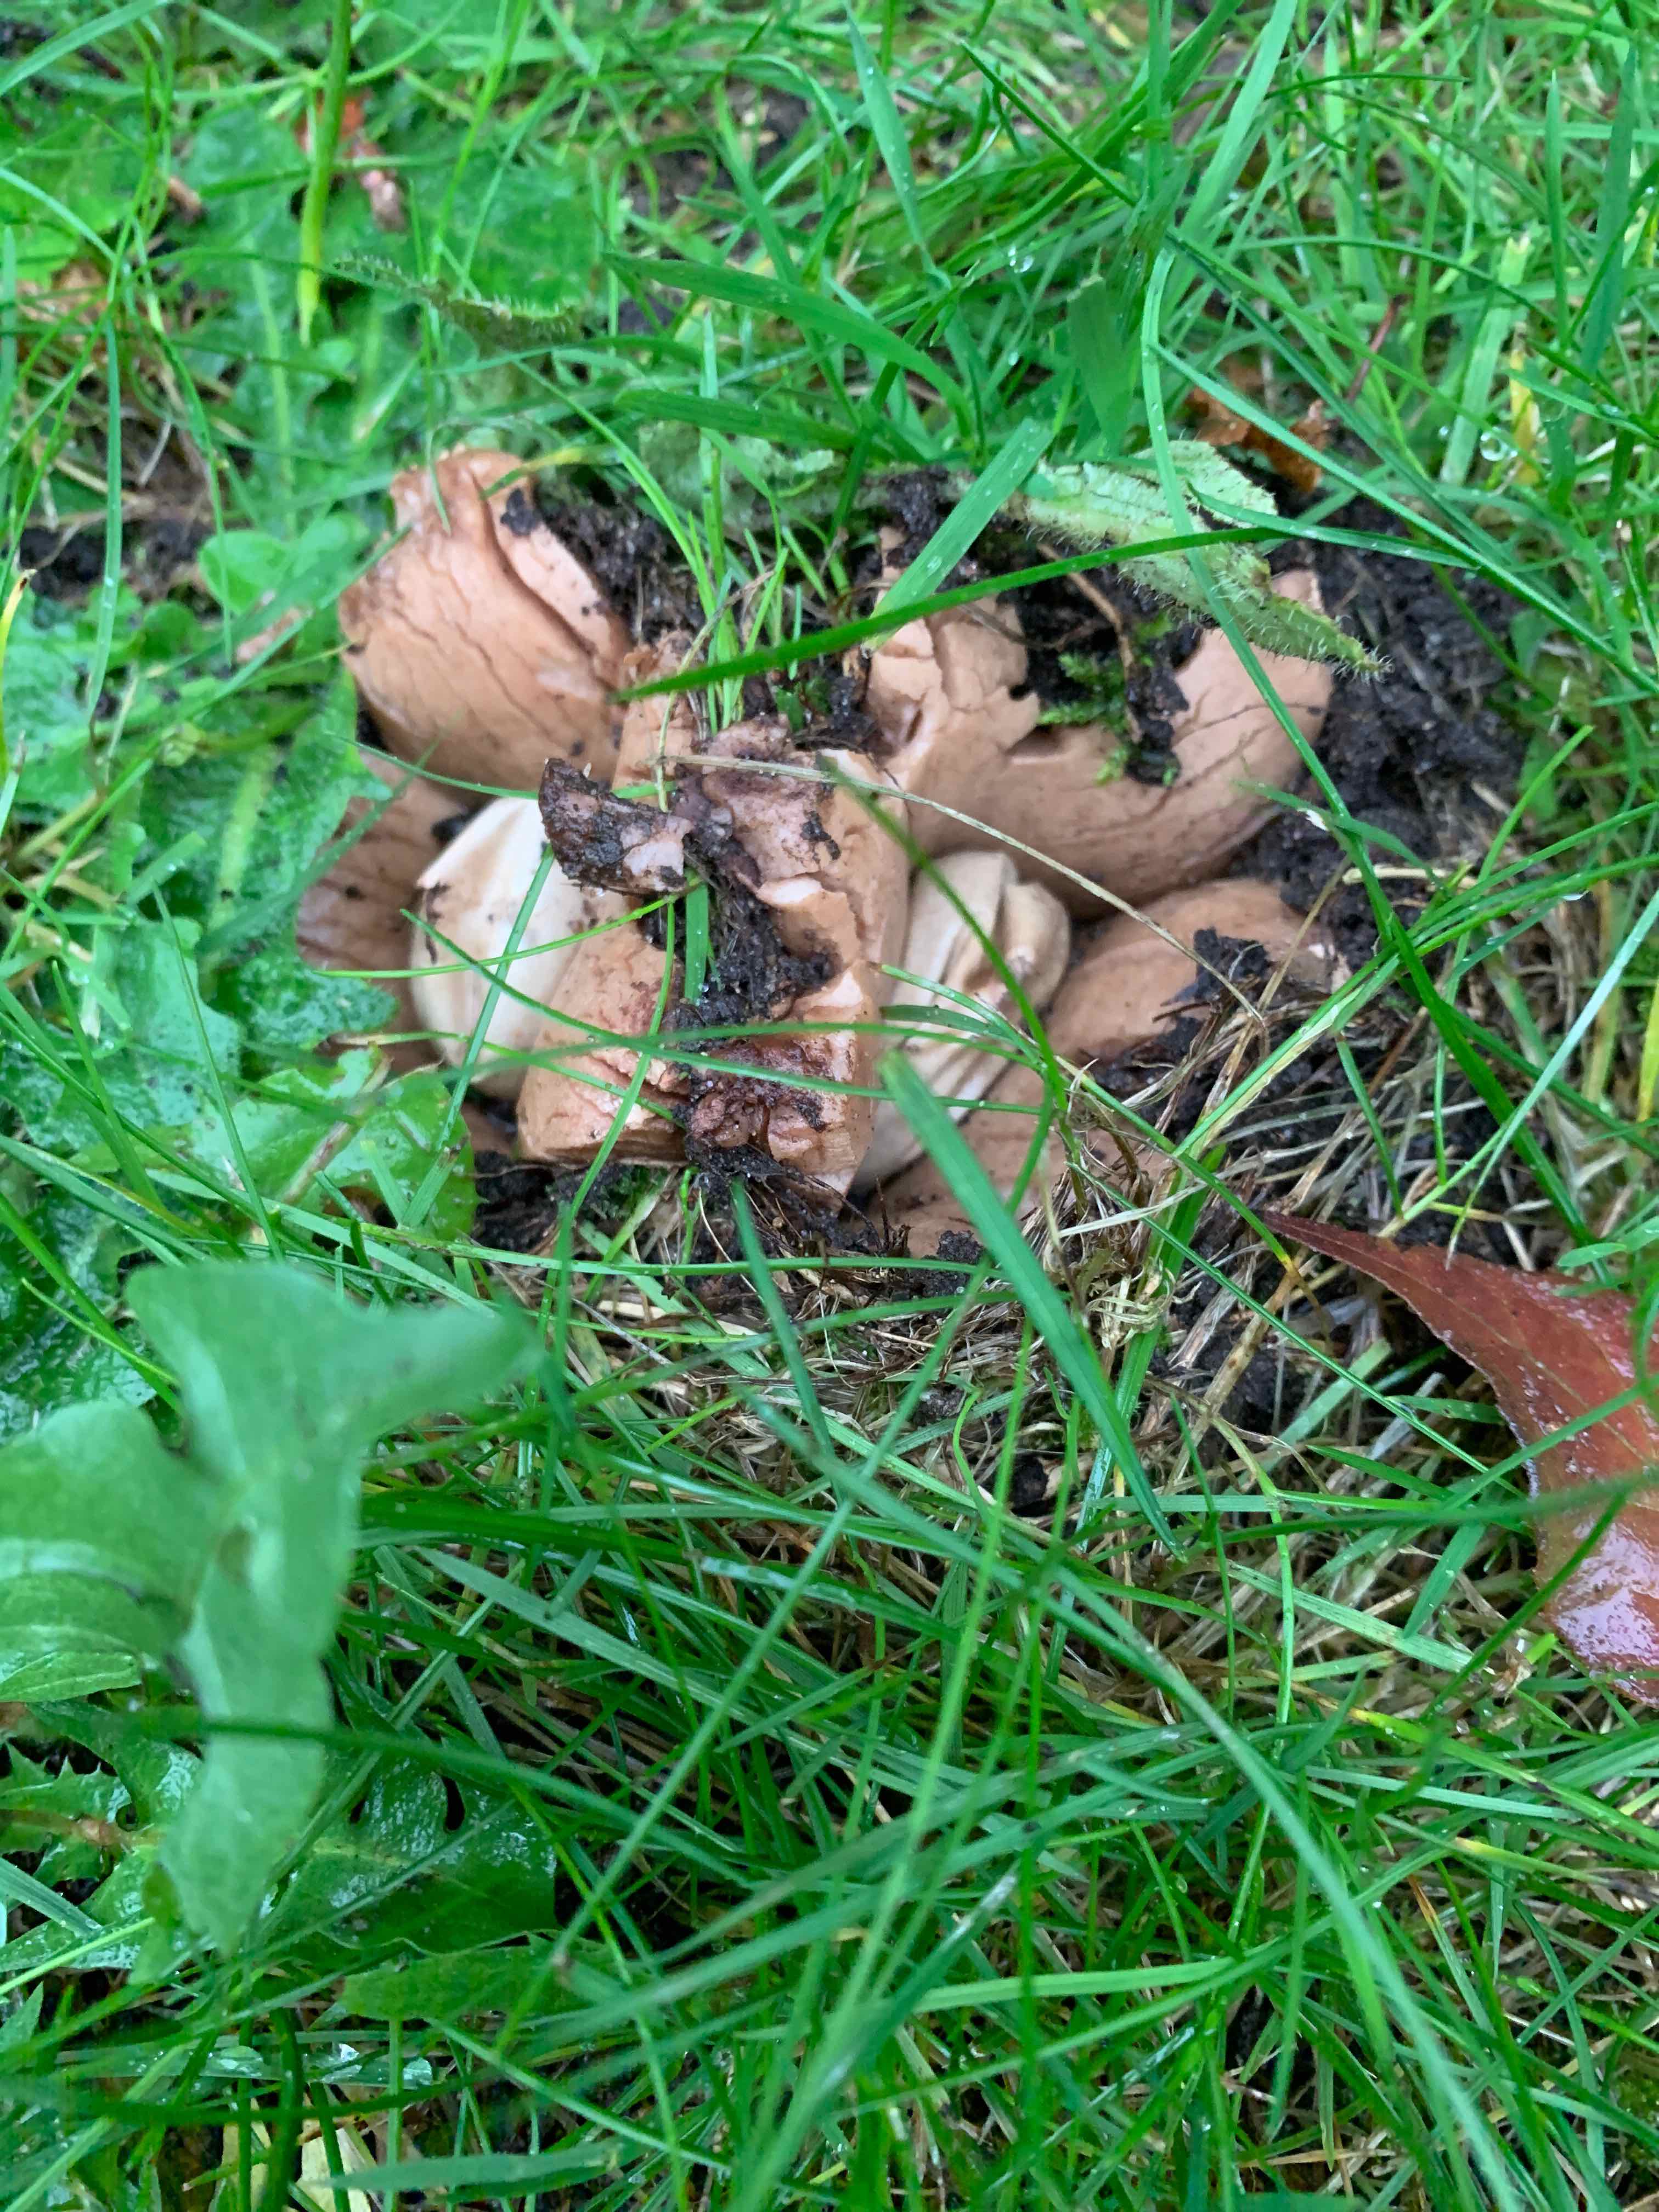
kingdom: Fungi
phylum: Basidiomycota
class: Agaricomycetes
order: Geastrales
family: Geastraceae
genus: Geastrum
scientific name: Geastrum michelianum
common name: kødet stjernebold
